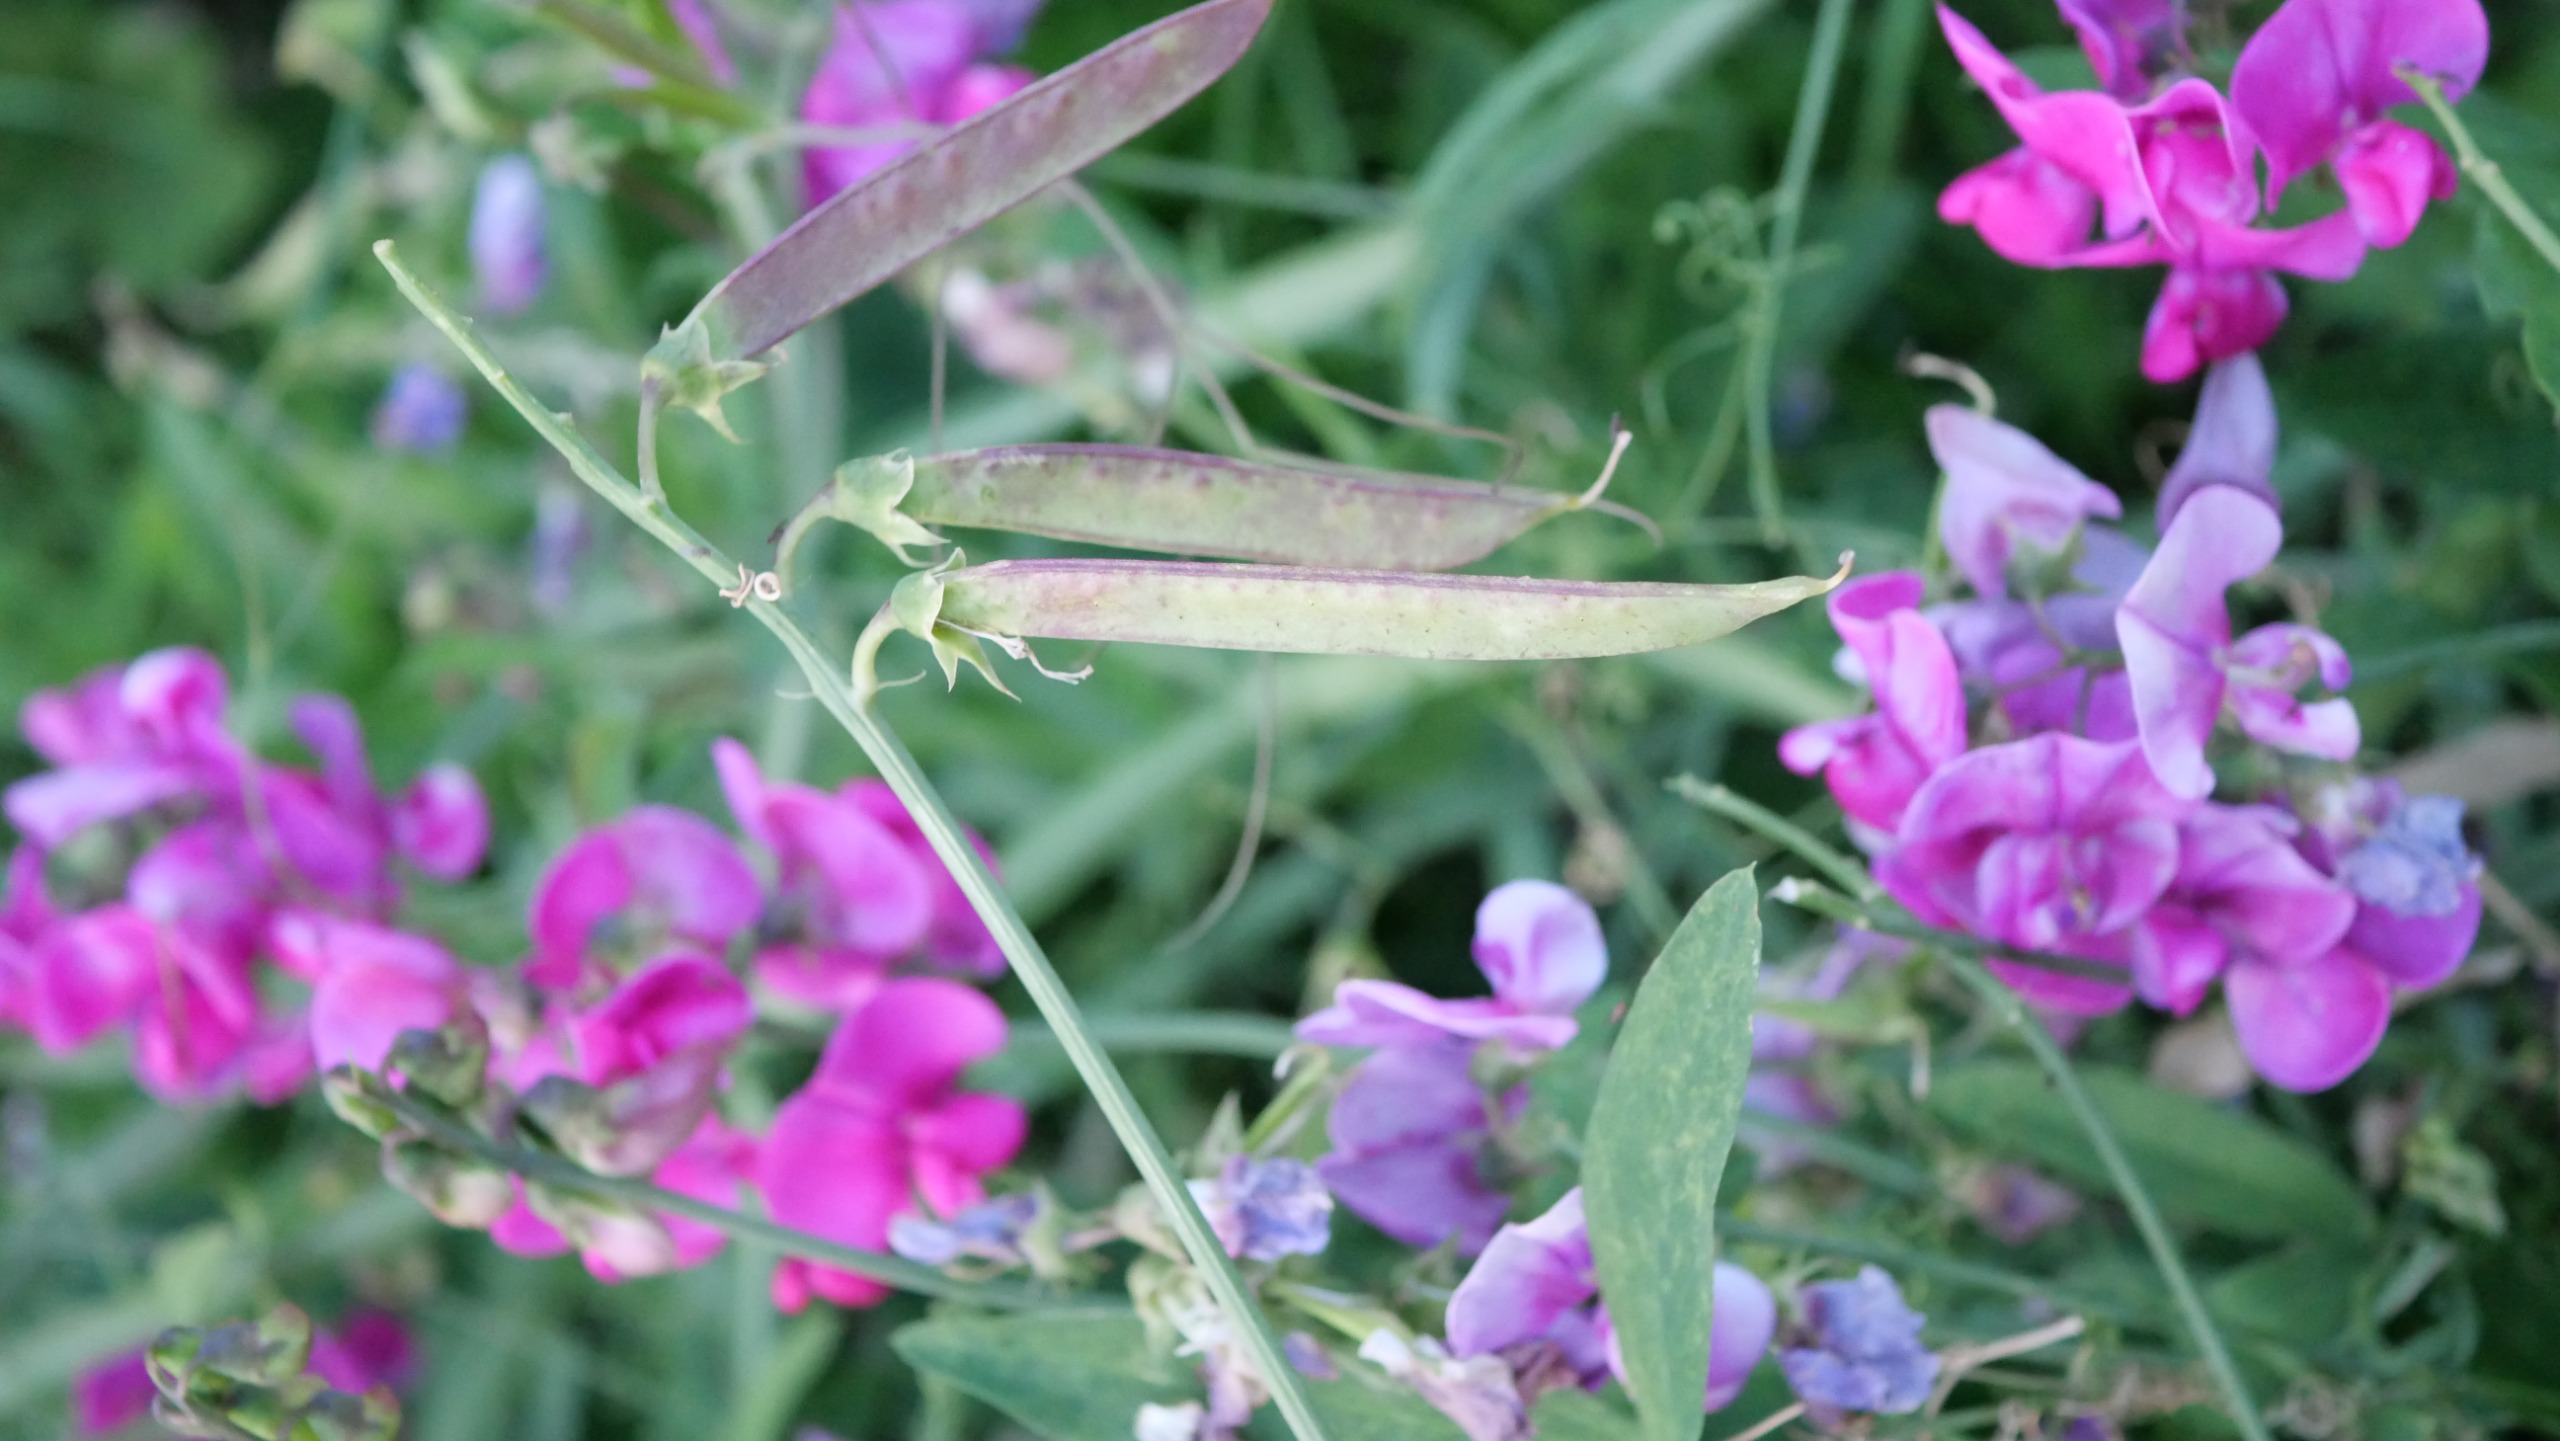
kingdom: Plantae
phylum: Tracheophyta
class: Magnoliopsida
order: Fabales
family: Fabaceae
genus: Lathyrus
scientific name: Lathyrus latifolius
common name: Flerårig ærteblomst
